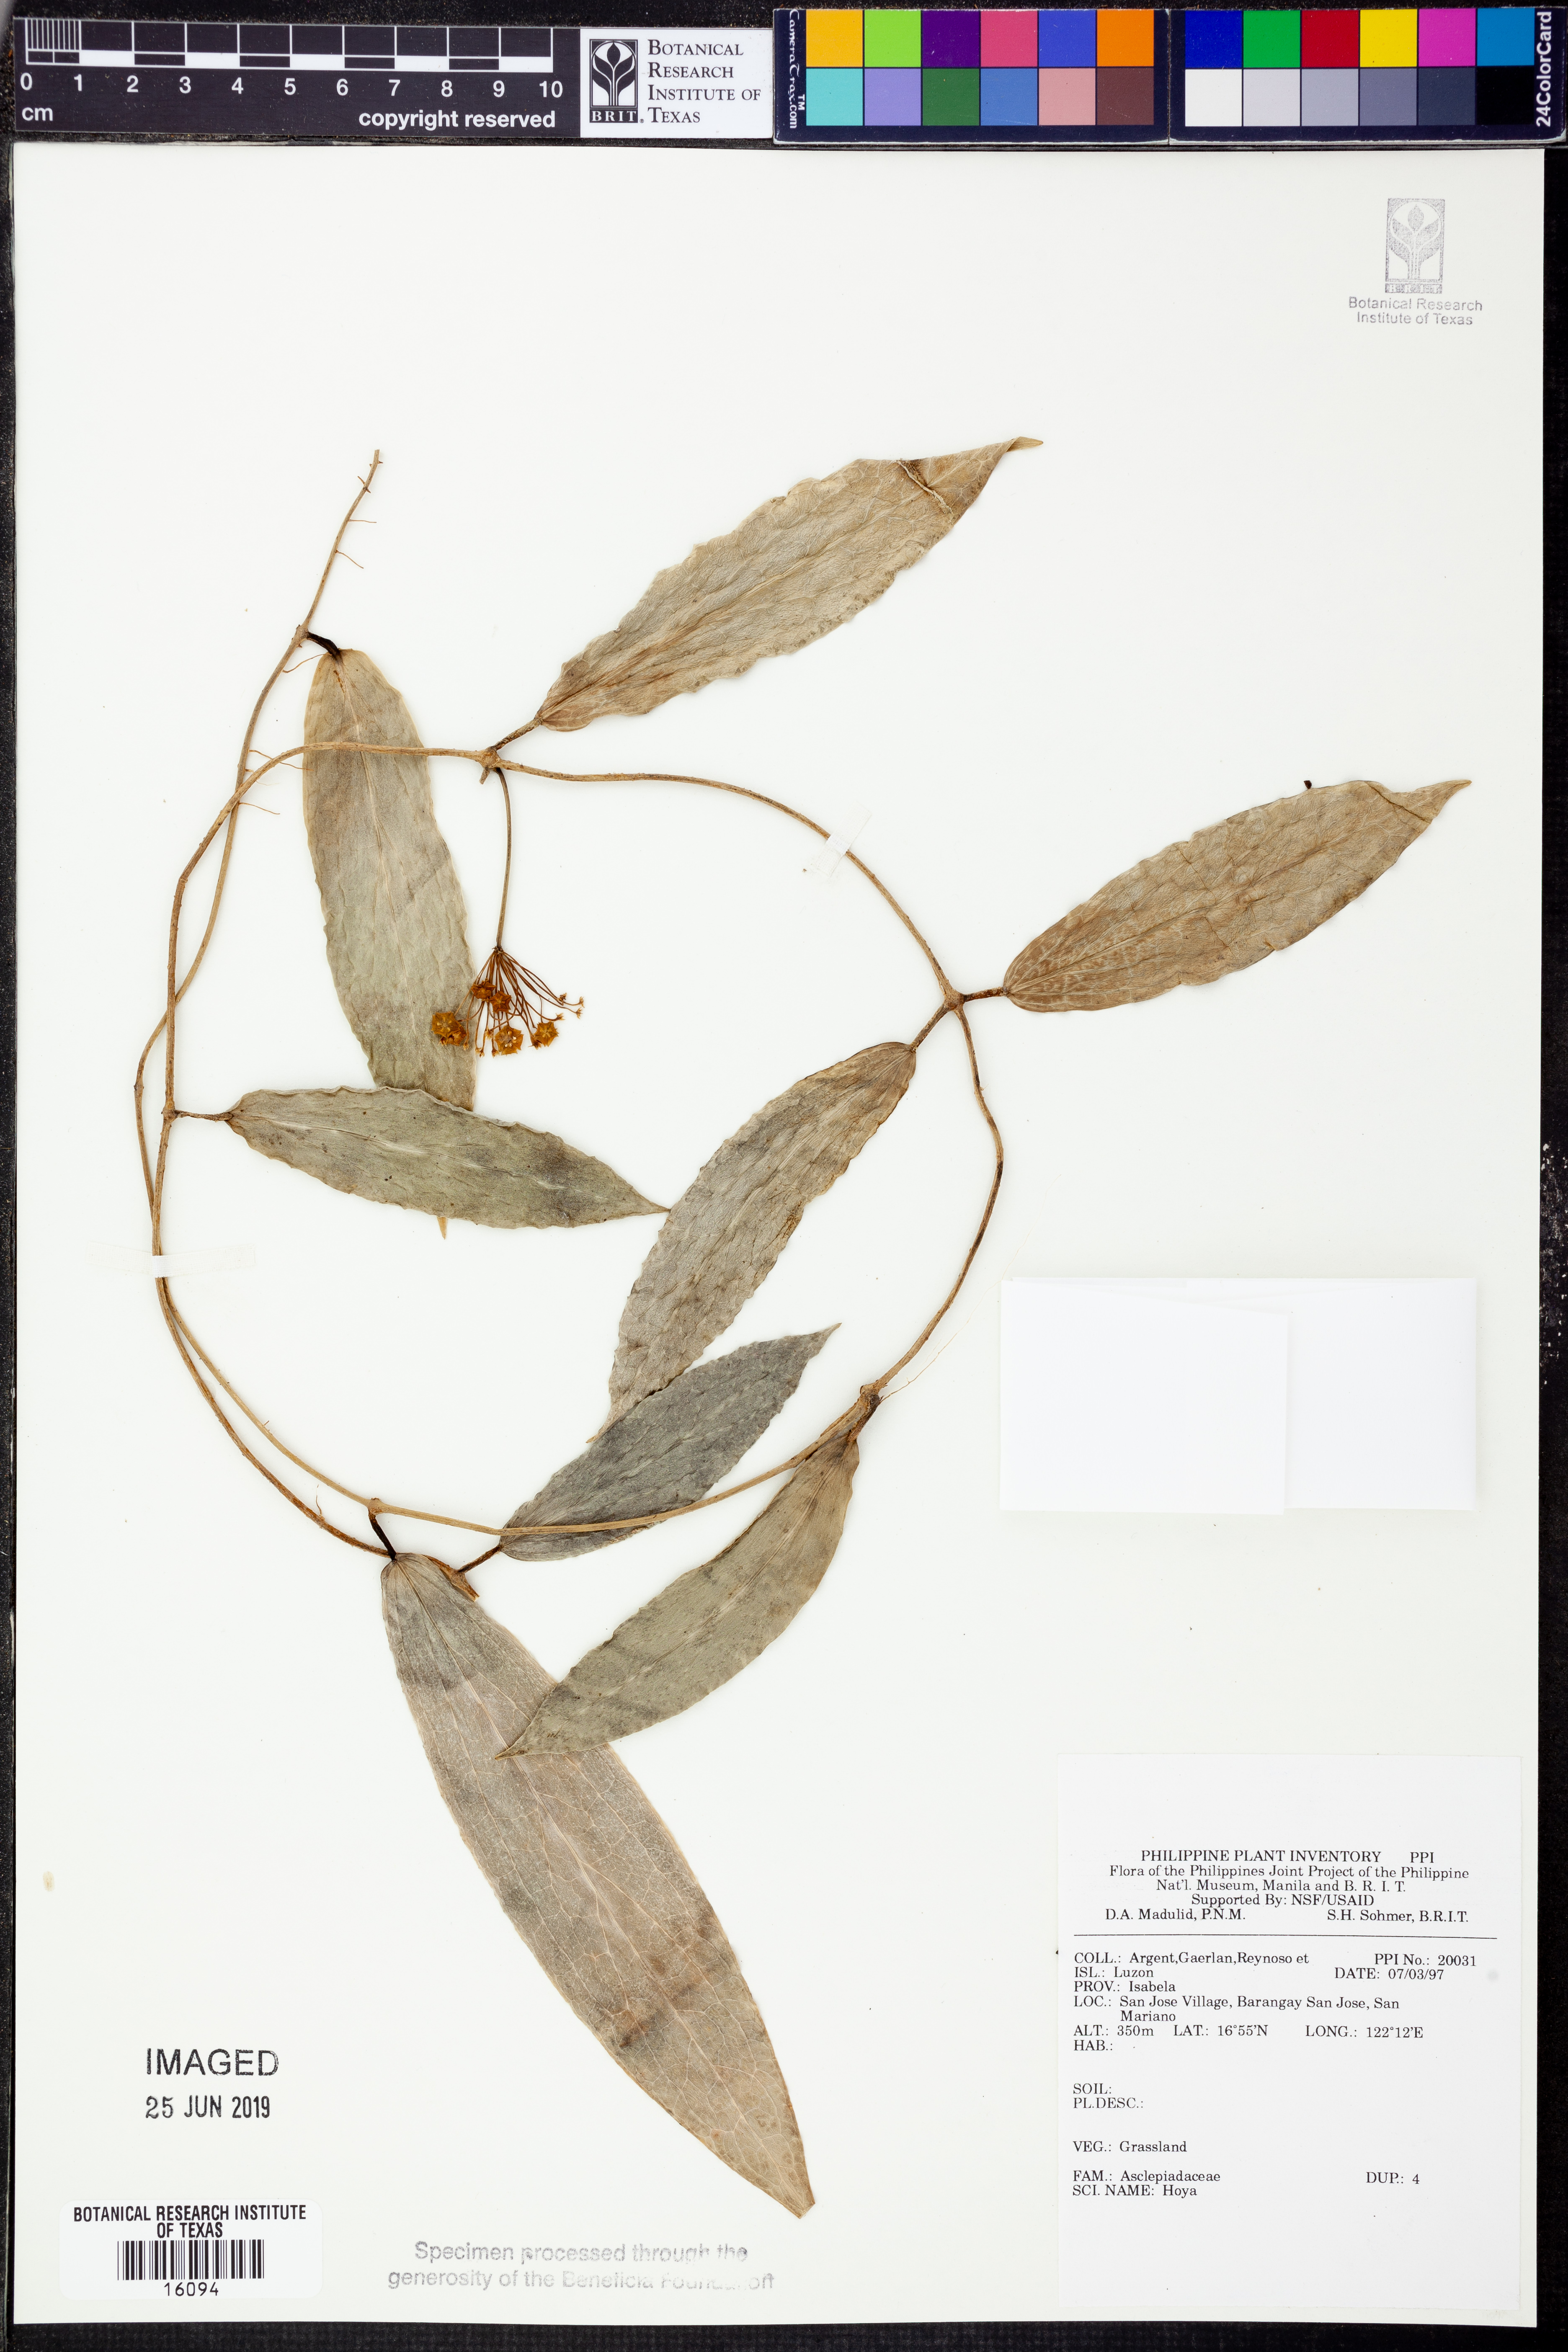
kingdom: Plantae
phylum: Tracheophyta
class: Magnoliopsida
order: Gentianales
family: Apocynaceae
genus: Hoya
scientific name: Hoya
